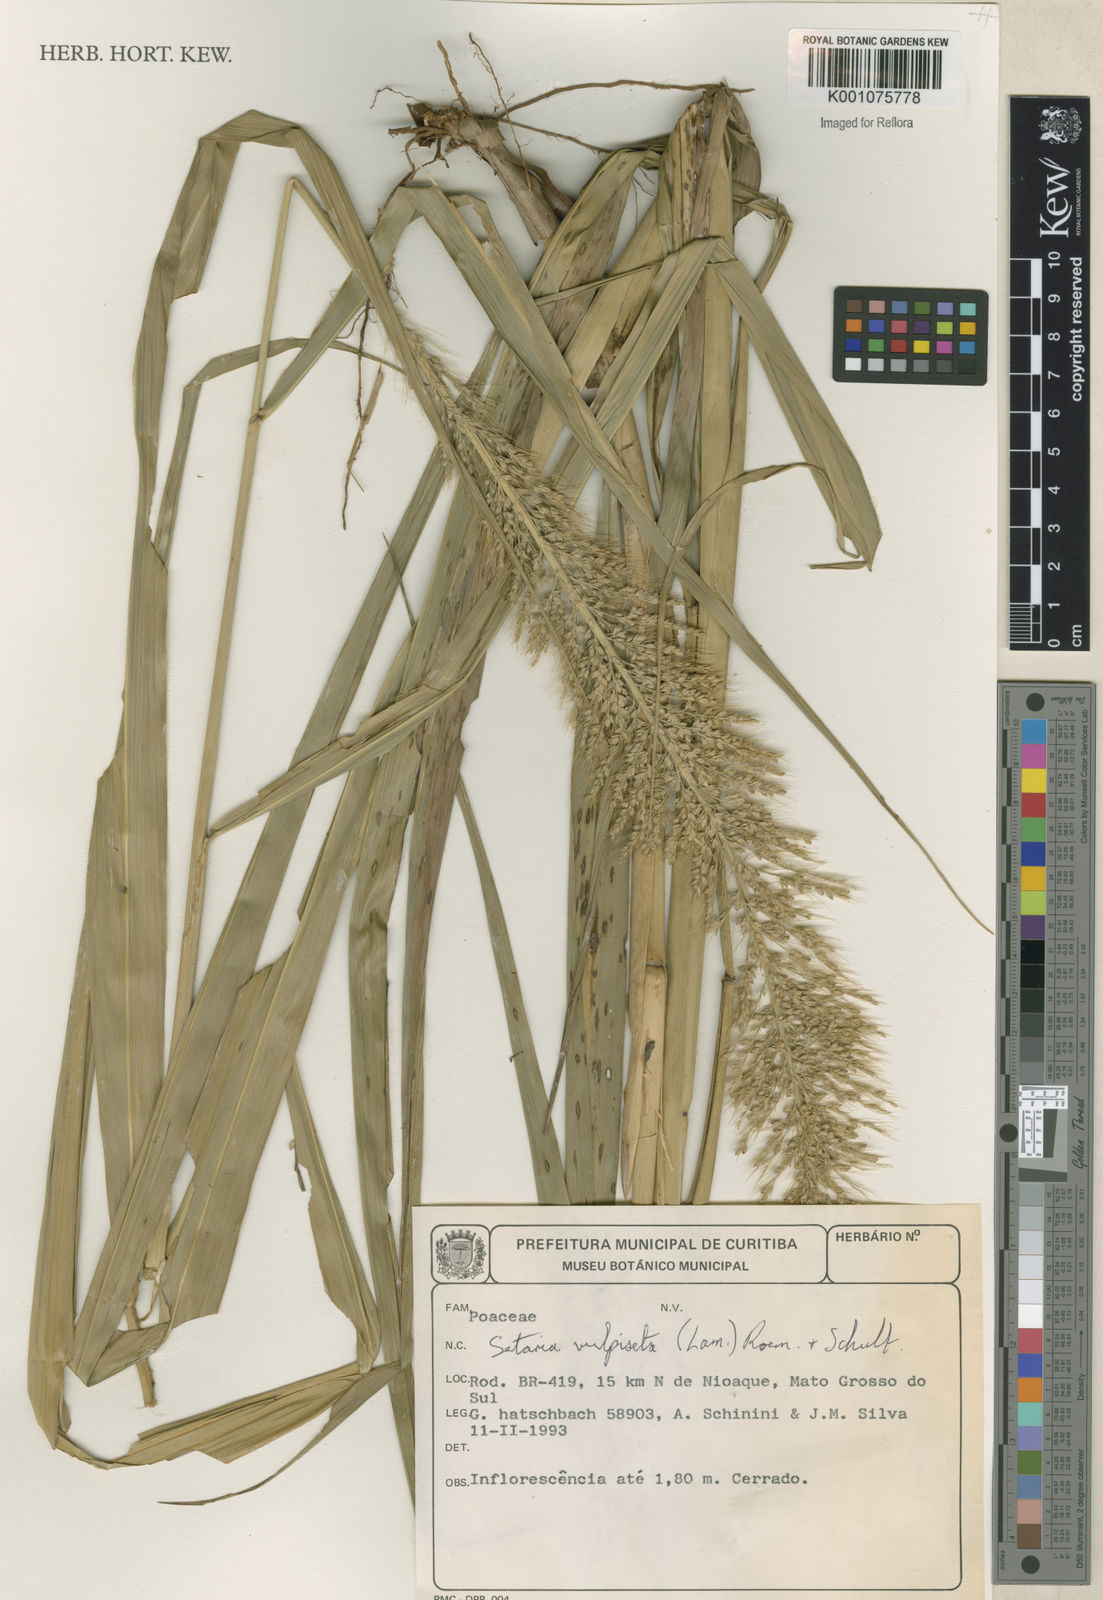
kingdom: Plantae
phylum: Tracheophyta
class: Liliopsida
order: Poales
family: Poaceae
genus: Setaria
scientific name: Setaria vulpiseta
